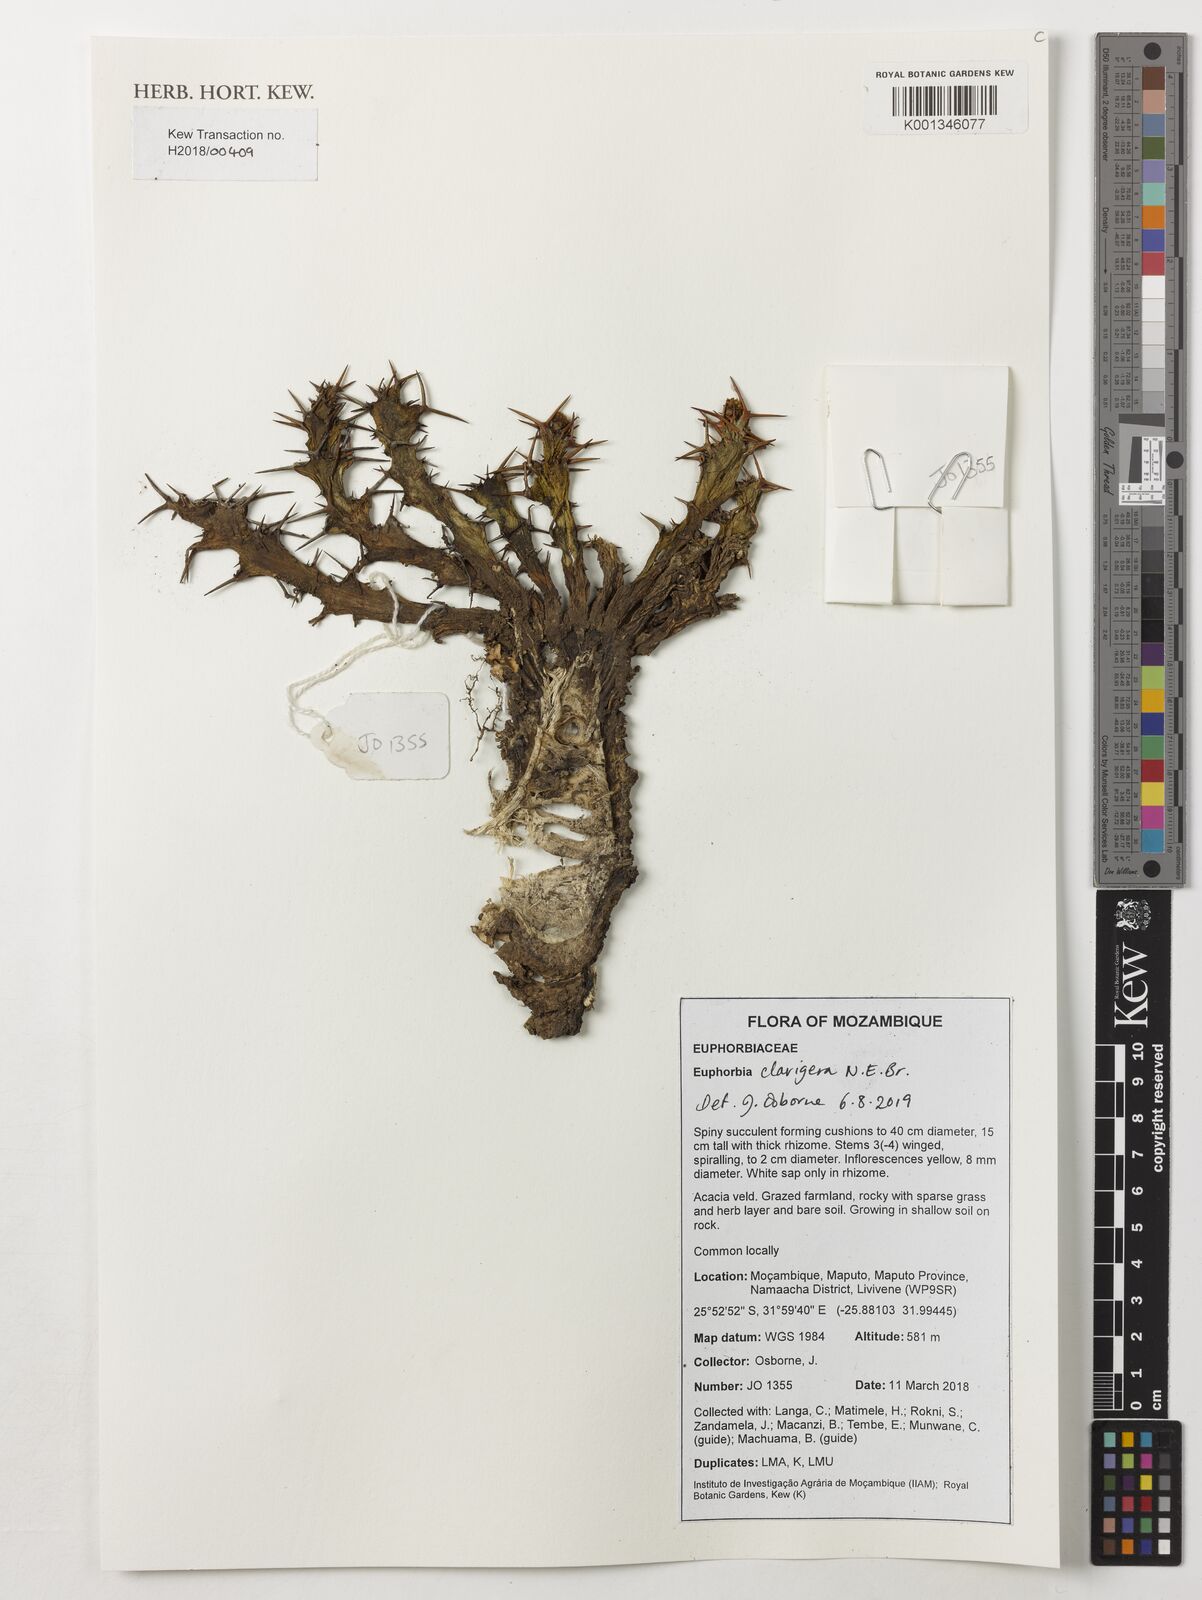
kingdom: Plantae
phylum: Tracheophyta
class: Magnoliopsida
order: Malpighiales
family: Euphorbiaceae
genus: Euphorbia
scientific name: Euphorbia
